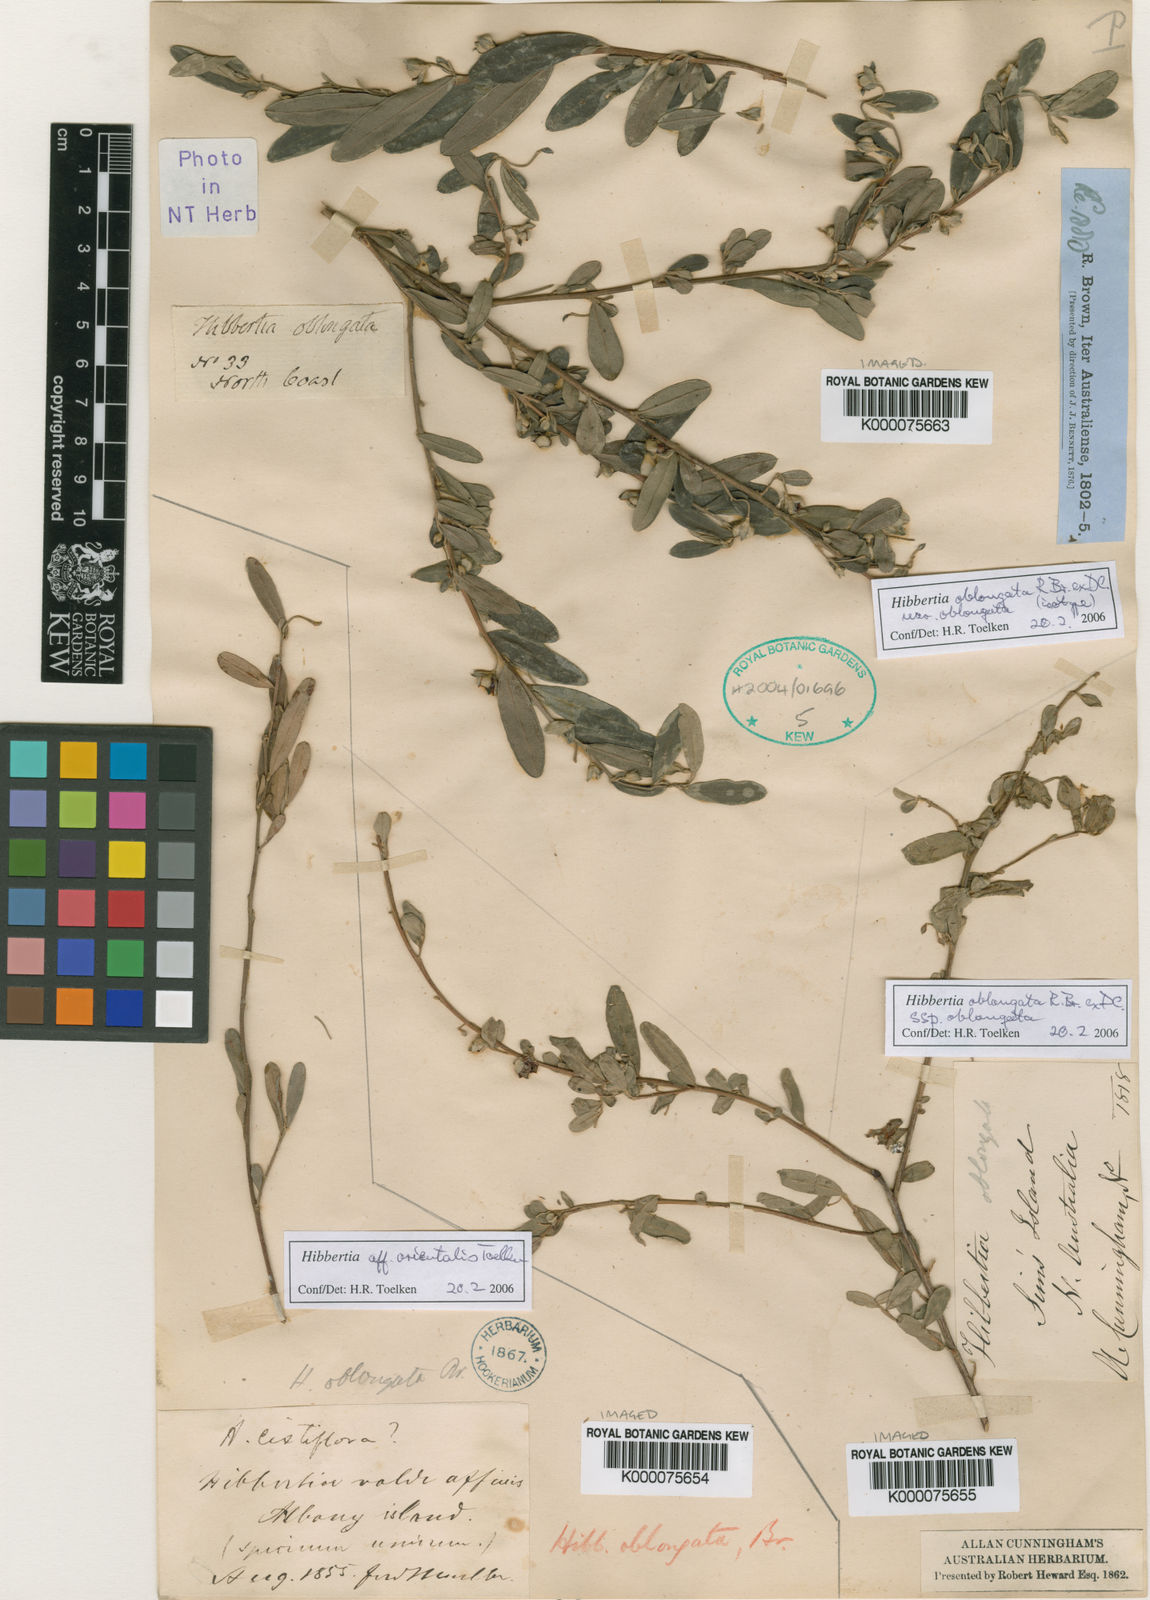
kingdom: Plantae
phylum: Tracheophyta
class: Magnoliopsida
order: Dilleniales
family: Dilleniaceae
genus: Hibbertia
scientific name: Hibbertia oblongata
